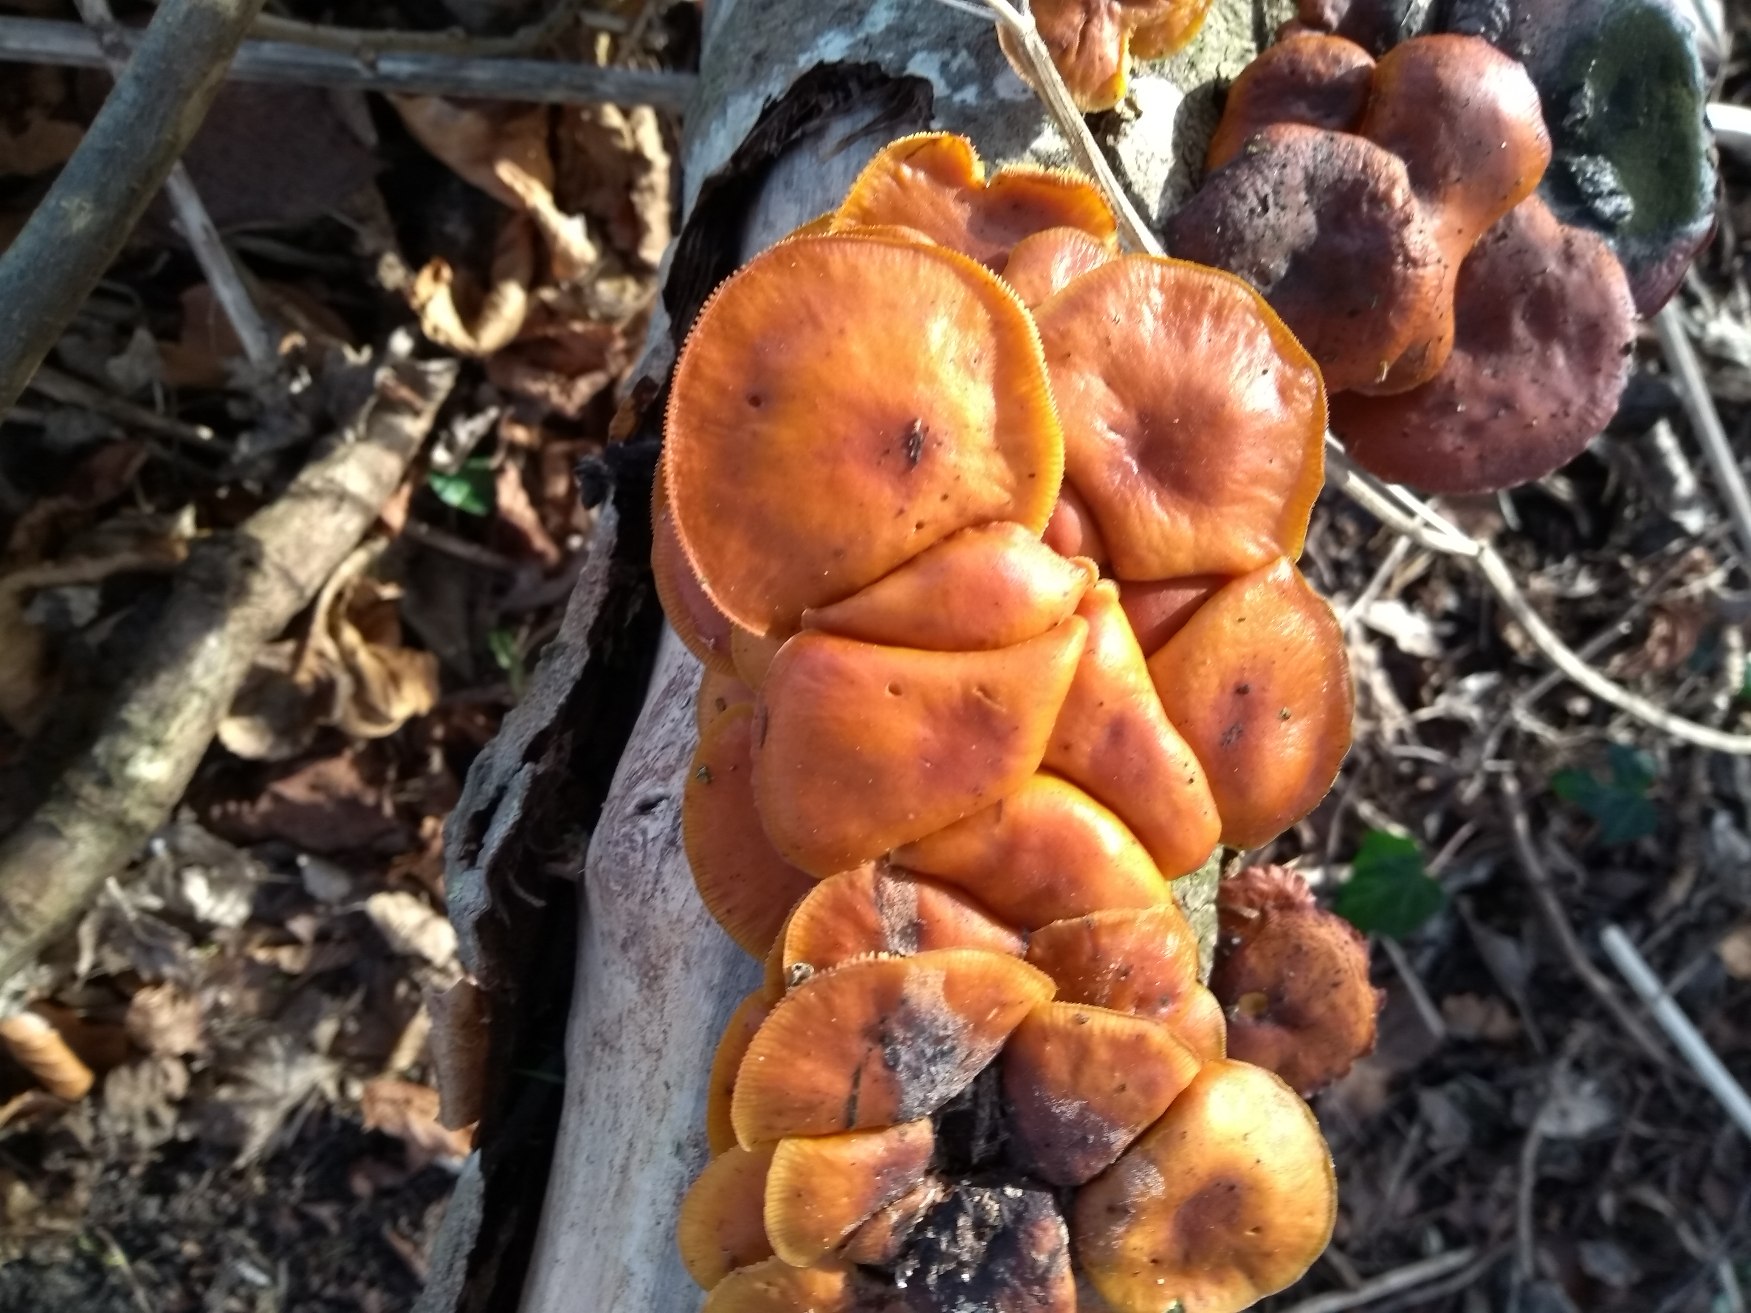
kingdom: Fungi
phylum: Basidiomycota
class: Agaricomycetes
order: Agaricales
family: Physalacriaceae
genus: Flammulina
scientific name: Flammulina velutipes
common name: Gul fløjlsfod
